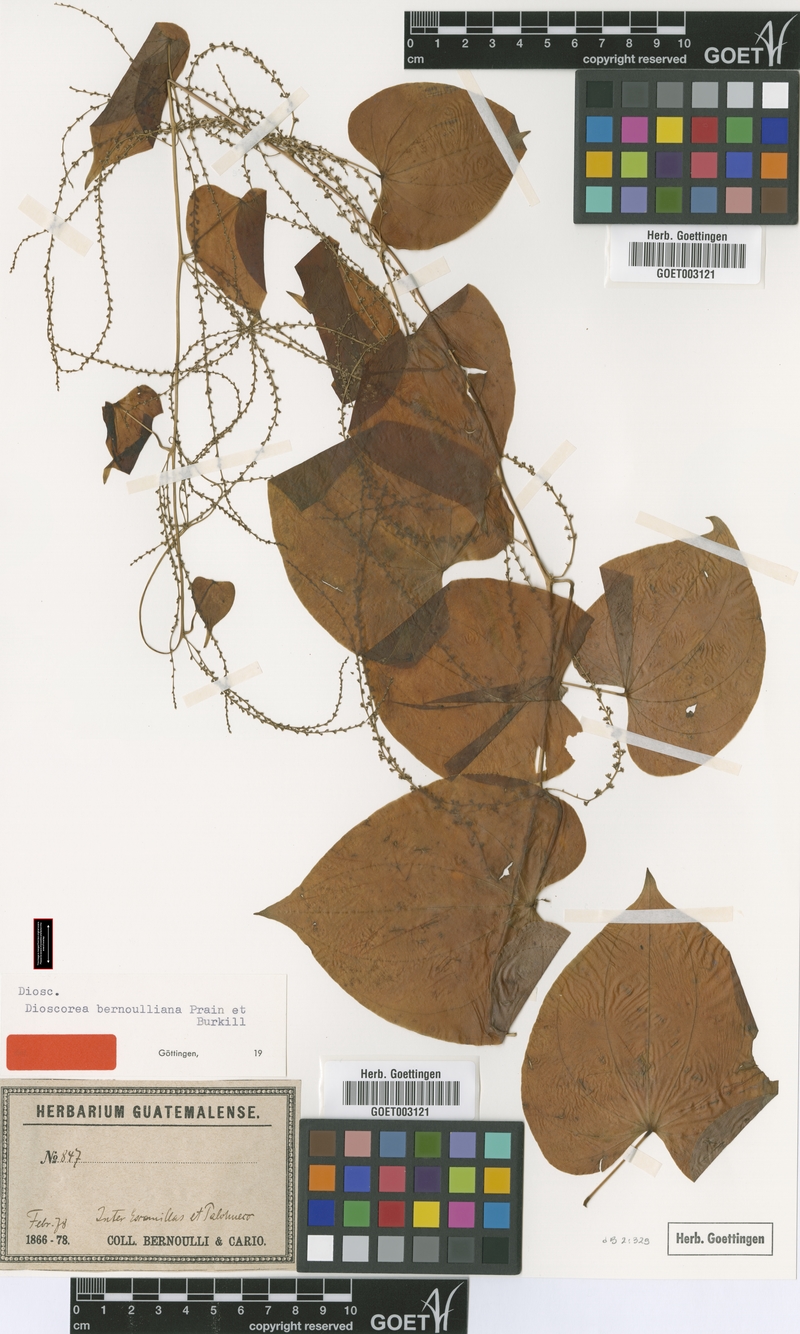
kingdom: Plantae
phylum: Tracheophyta
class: Liliopsida
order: Dioscoreales
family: Dioscoreaceae
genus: Dioscorea
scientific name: Dioscorea bernoulliana
